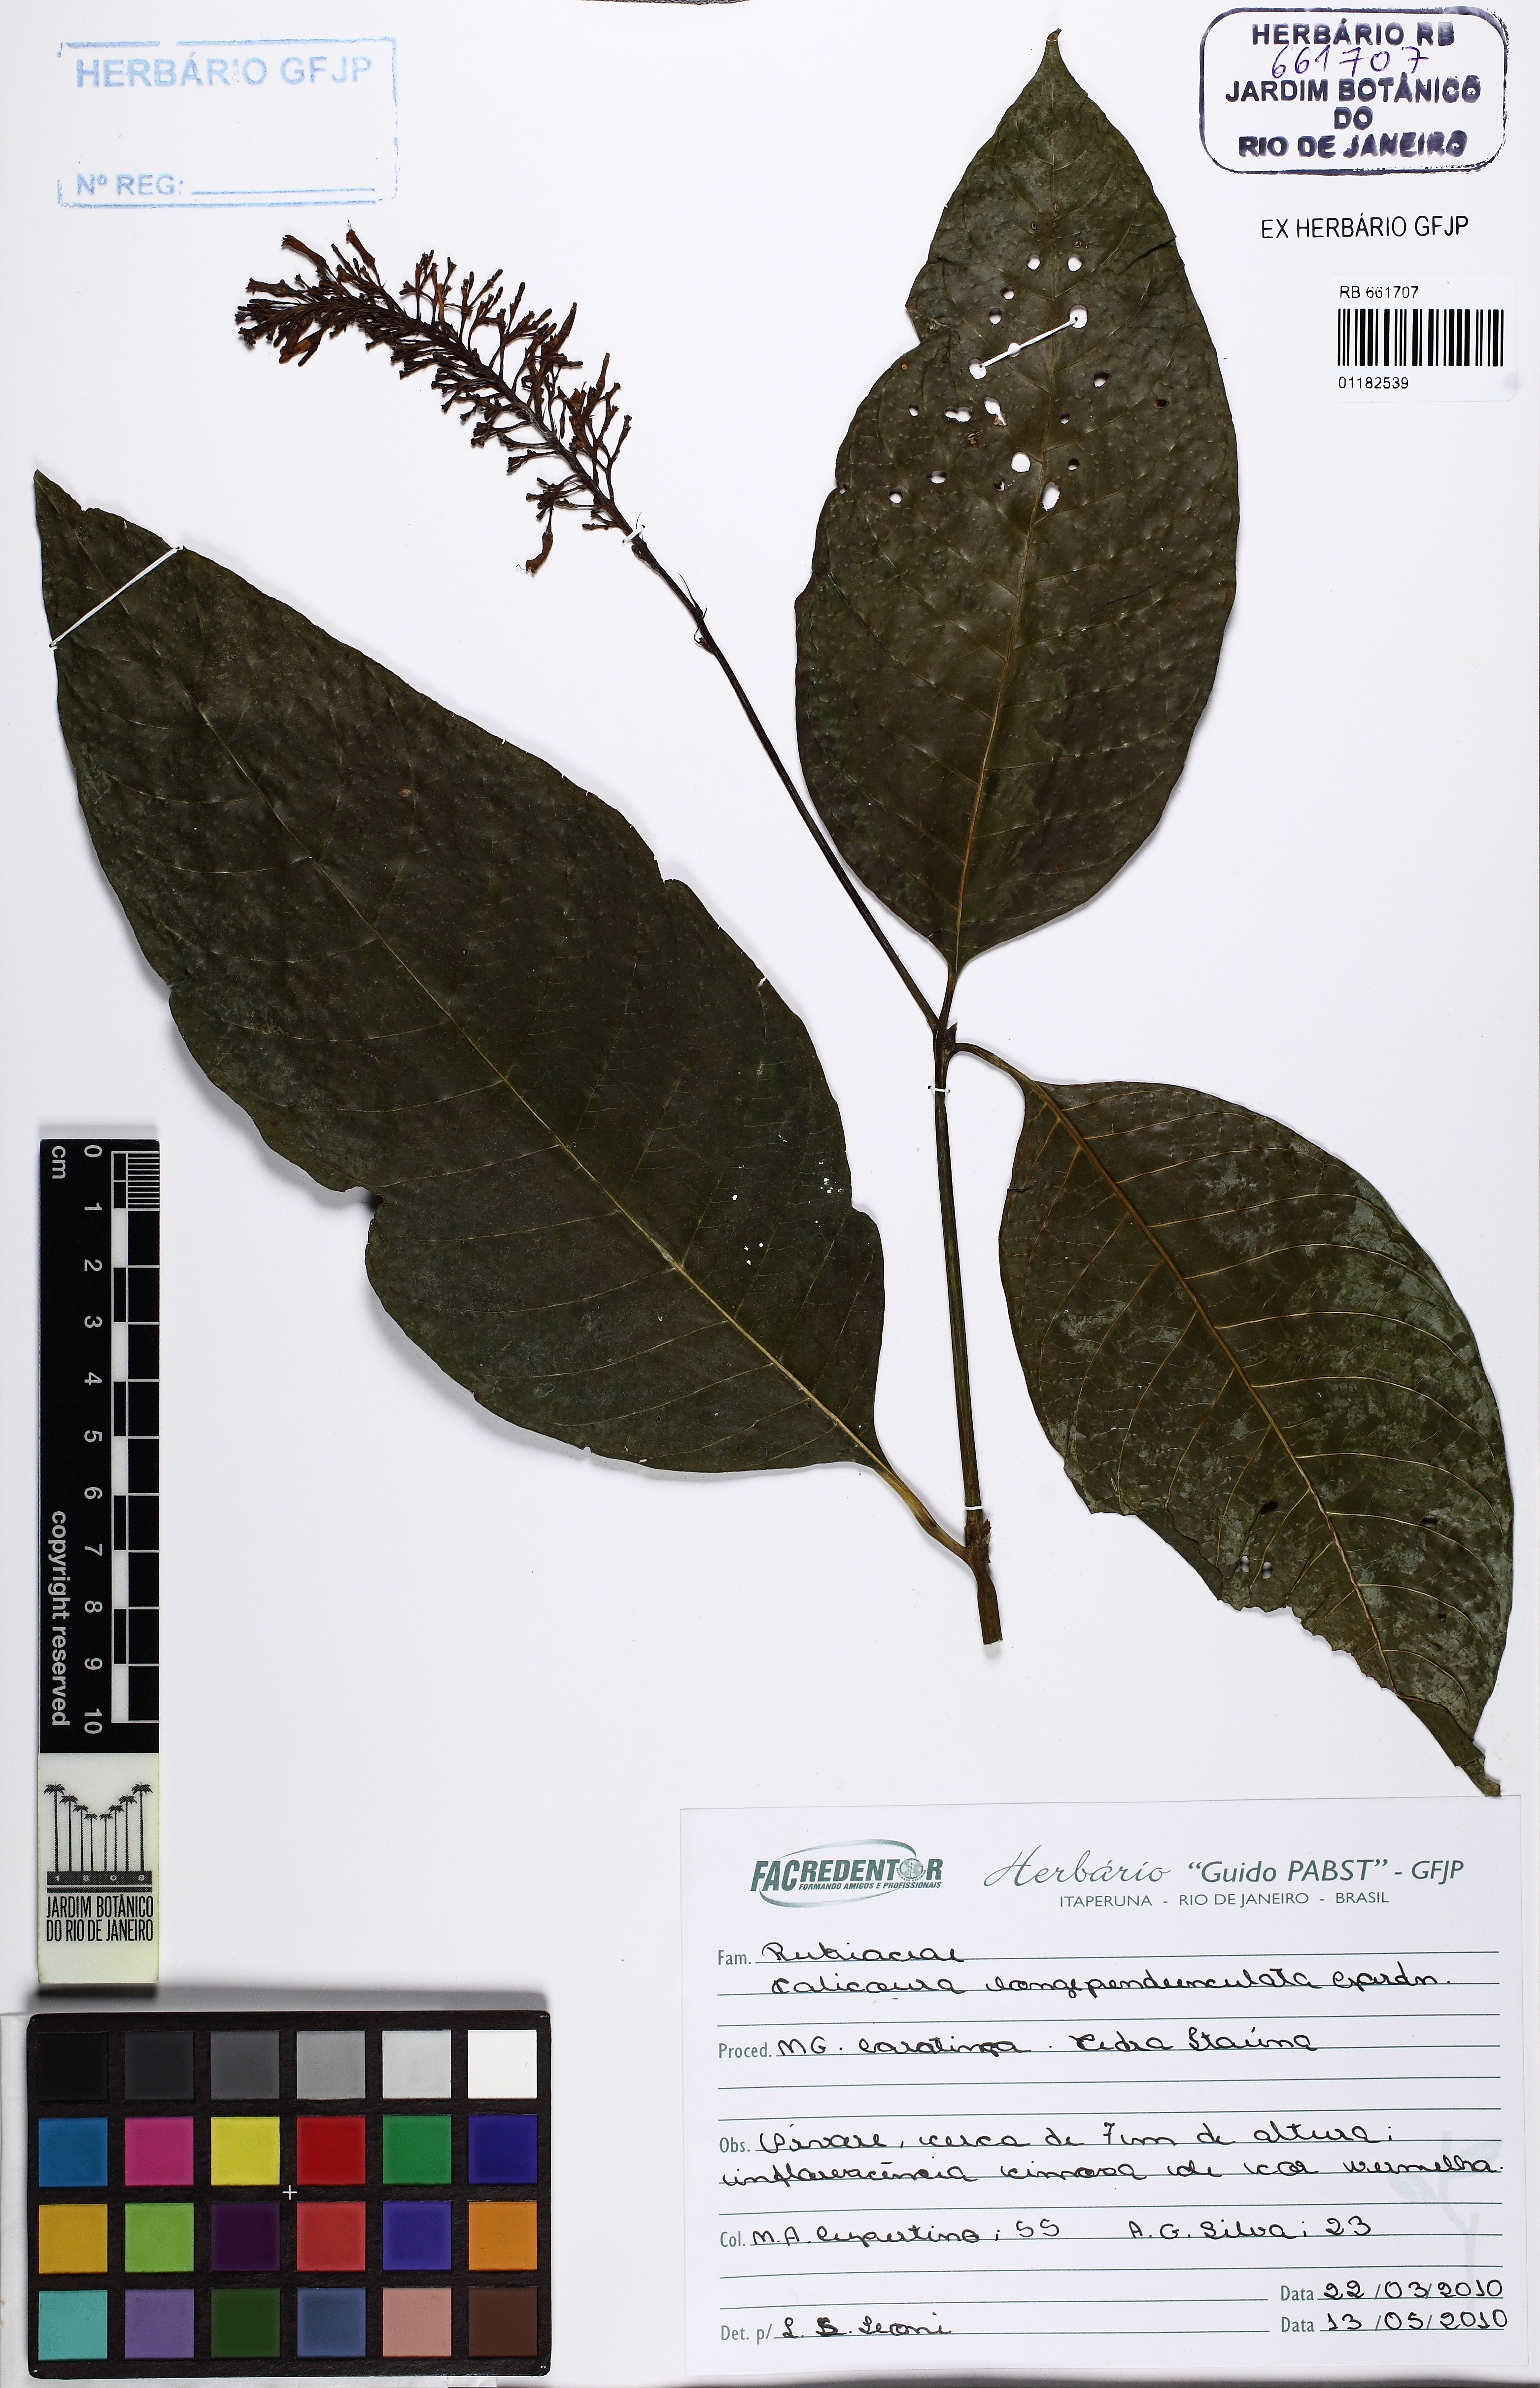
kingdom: Plantae
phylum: Tracheophyta
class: Magnoliopsida
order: Gentianales
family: Rubiaceae
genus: Palicourea
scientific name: Palicourea longipedunculata
